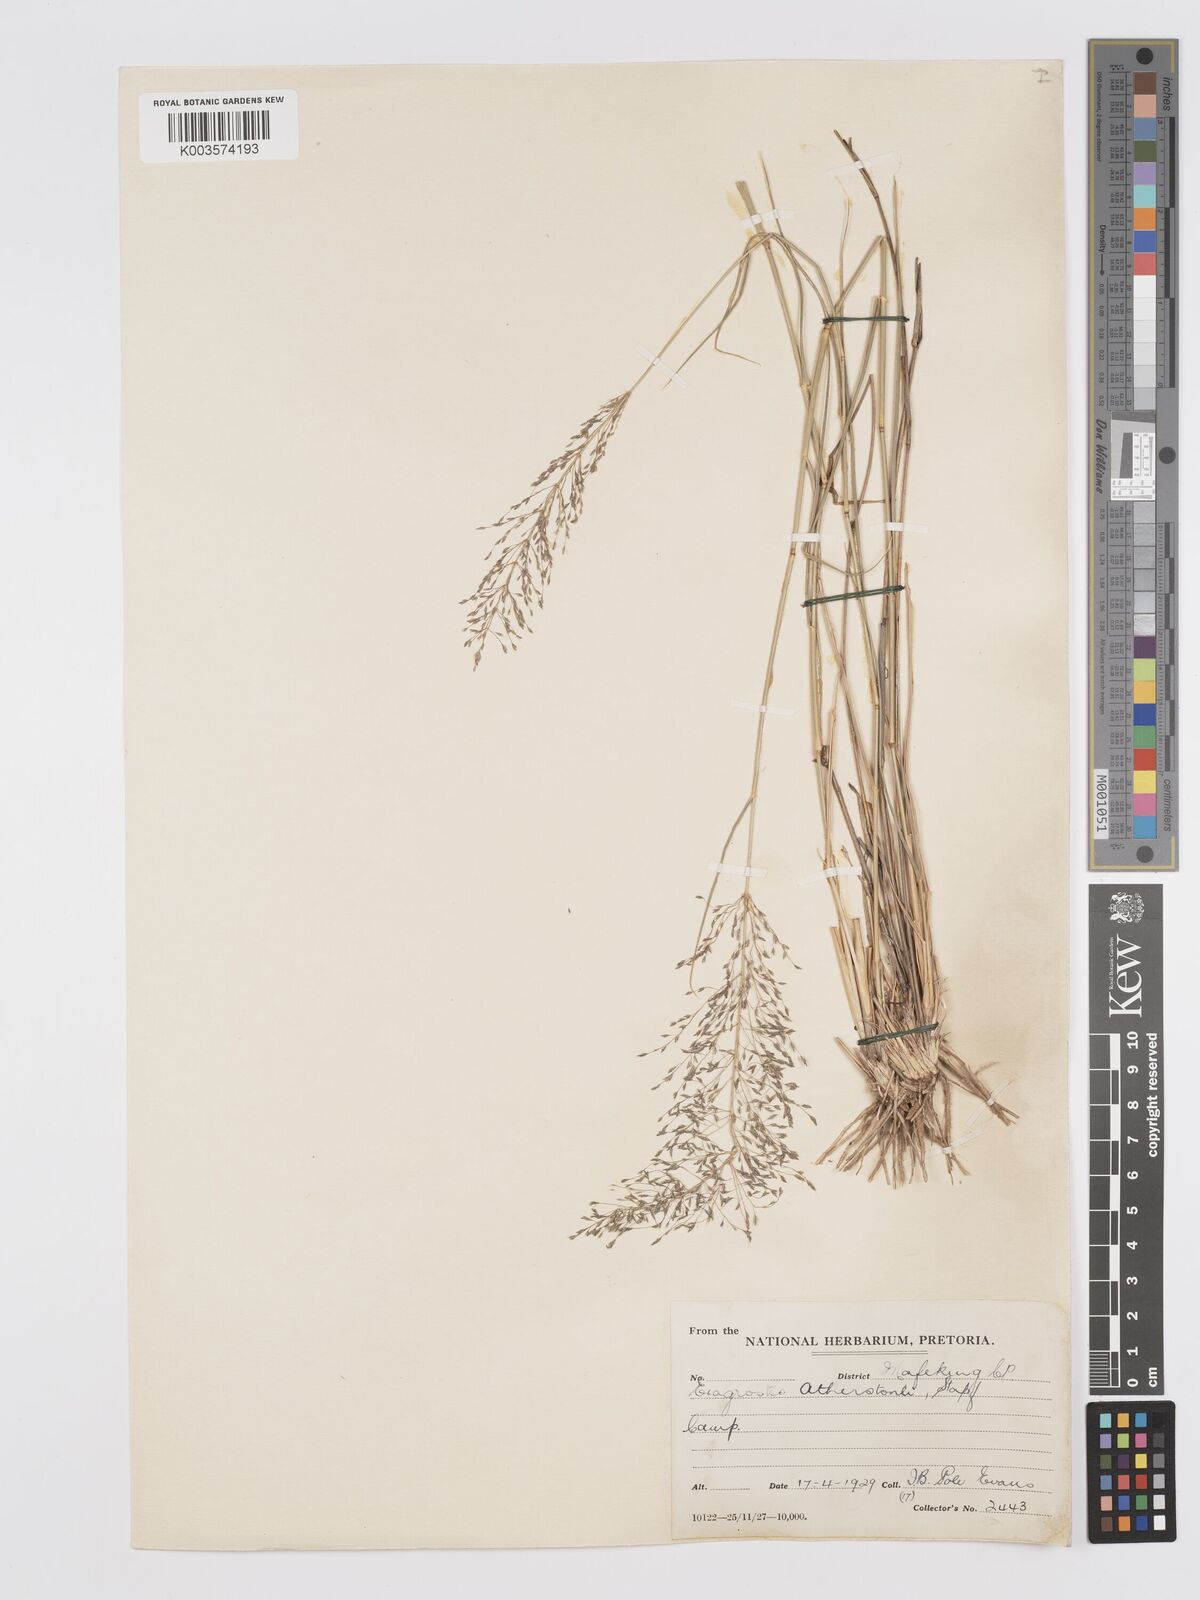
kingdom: Plantae
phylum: Tracheophyta
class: Liliopsida
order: Poales
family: Poaceae
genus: Eragrostis
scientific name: Eragrostis cylindriflora
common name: Cylinderflower lovegrass
